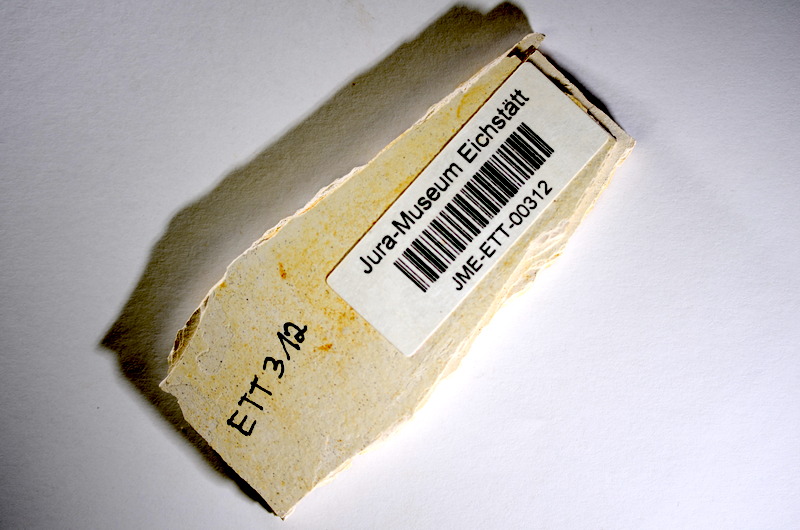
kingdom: Animalia
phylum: Chordata
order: Salmoniformes
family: Orthogonikleithridae
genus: Orthogonikleithrus
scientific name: Orthogonikleithrus hoelli
